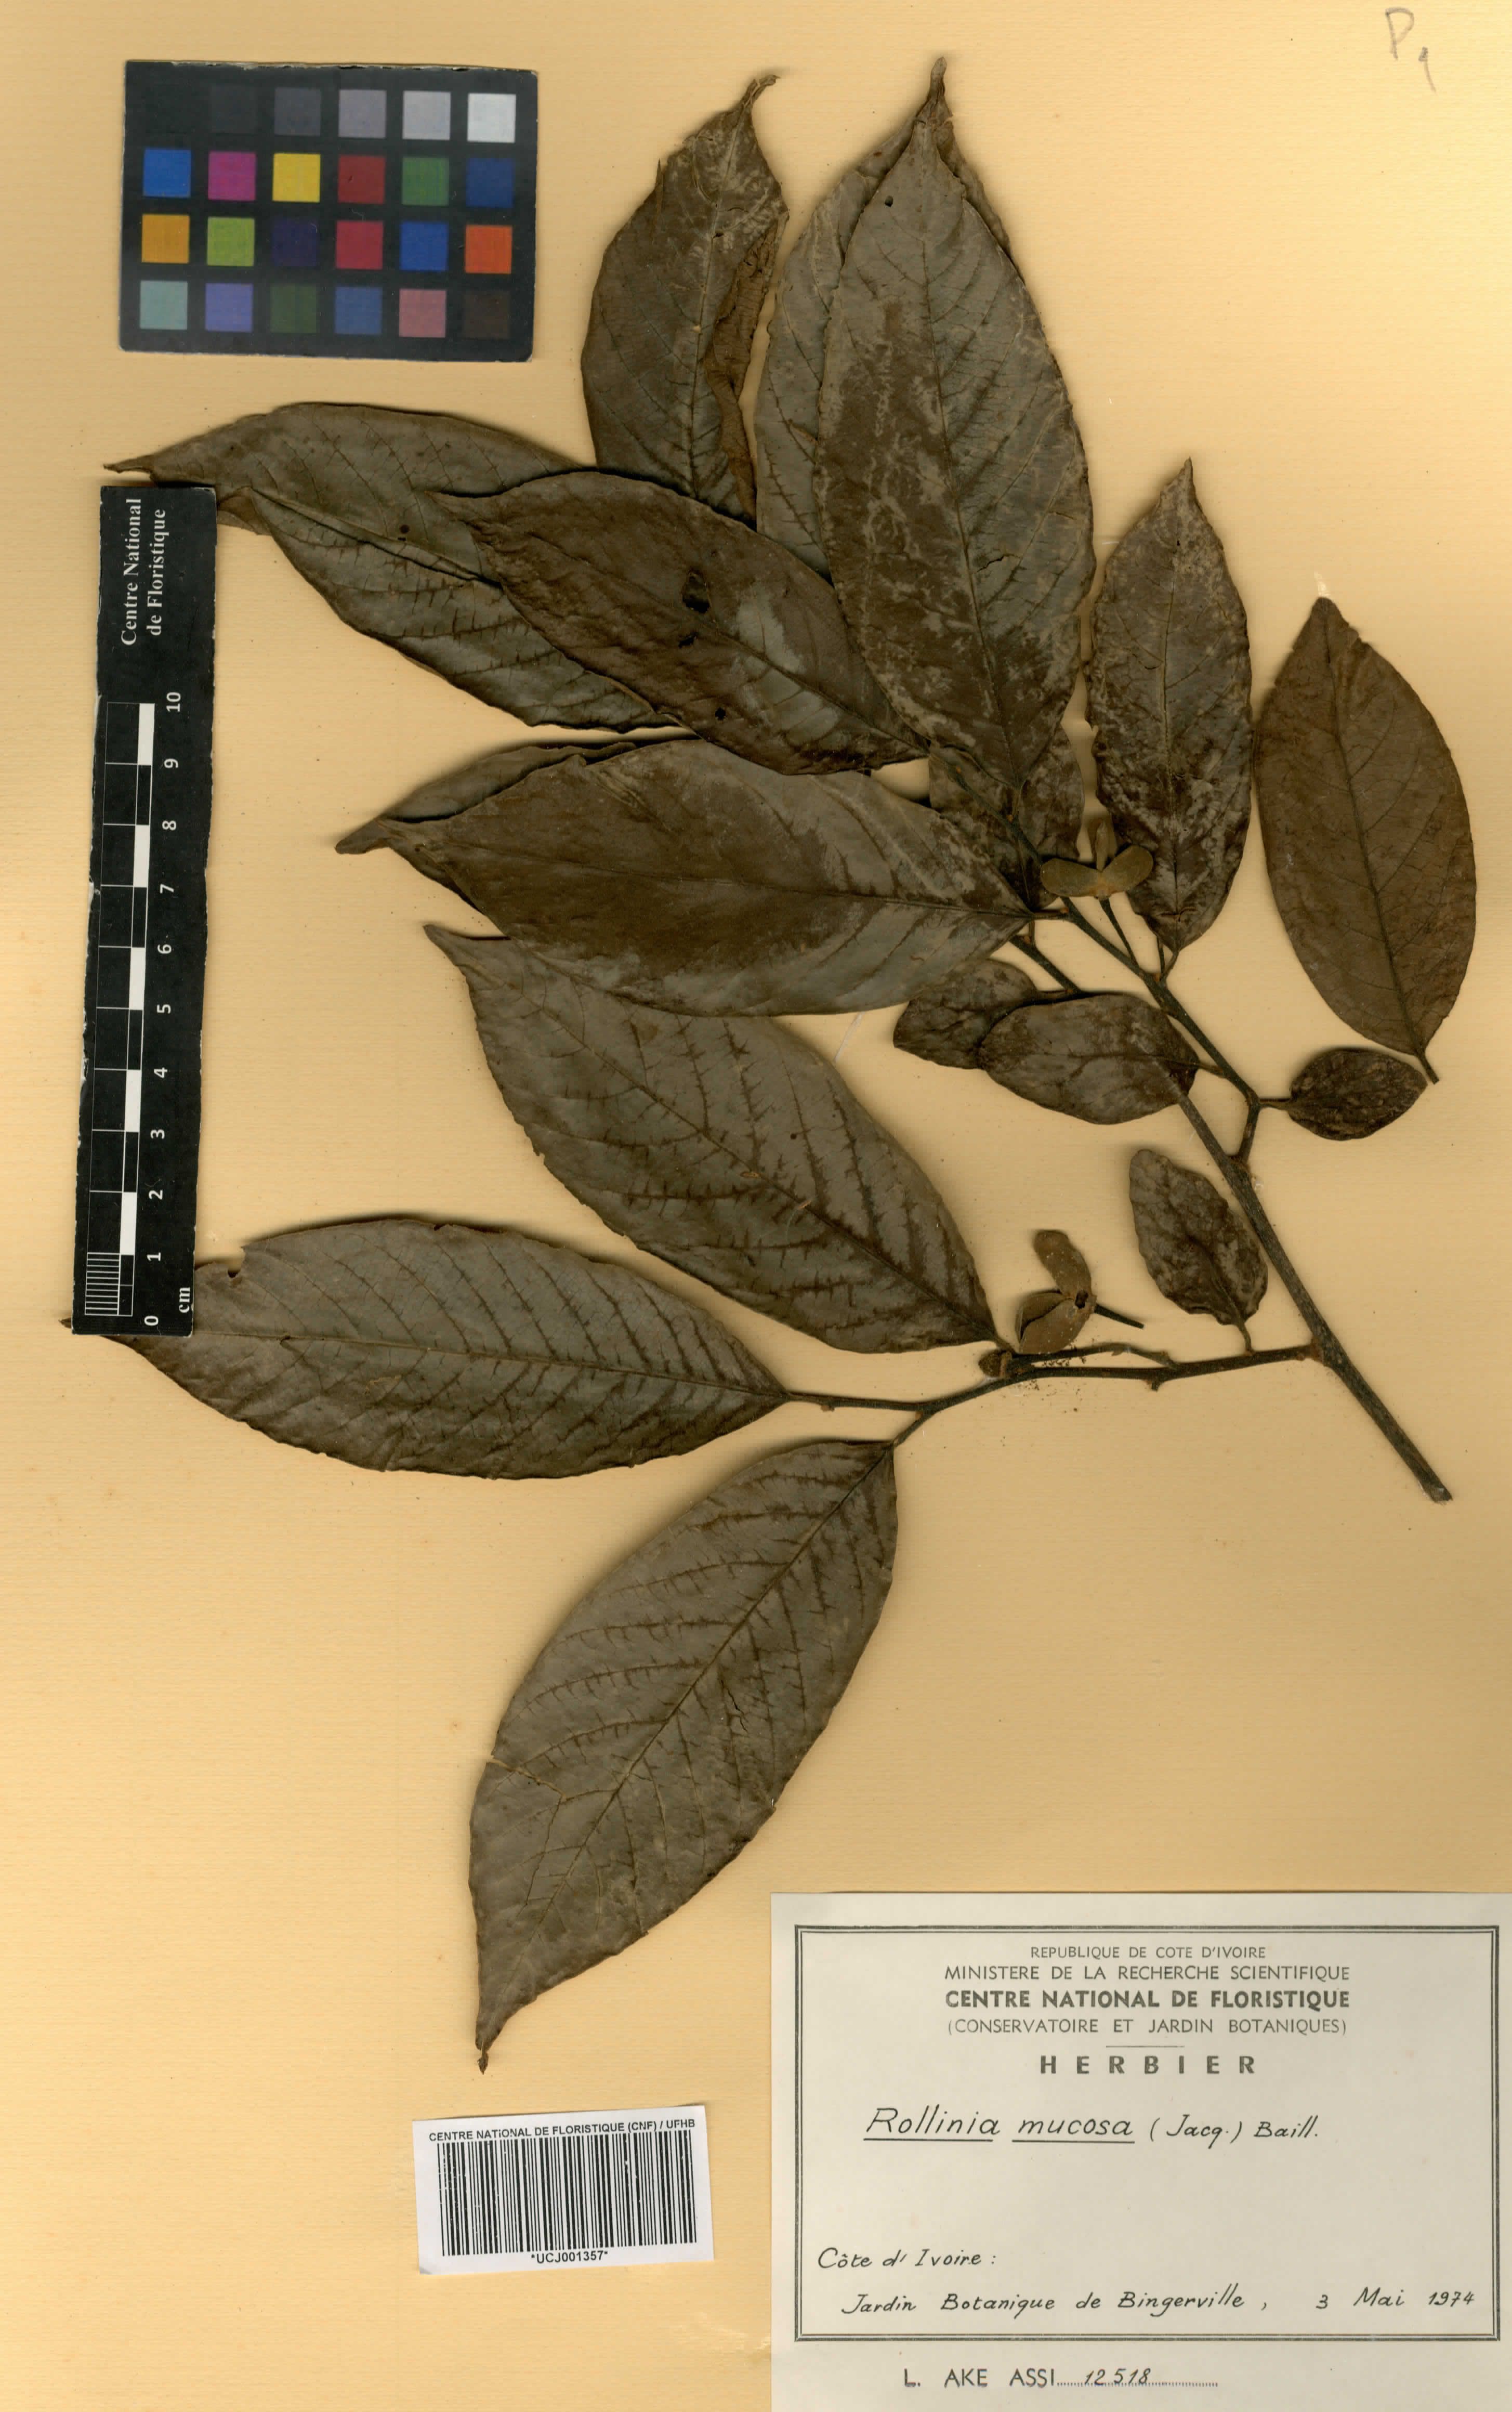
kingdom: Plantae
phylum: Tracheophyta
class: Magnoliopsida
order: Magnoliales
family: Annonaceae
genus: Annona
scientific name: Annona mucosa
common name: Sugar apple
